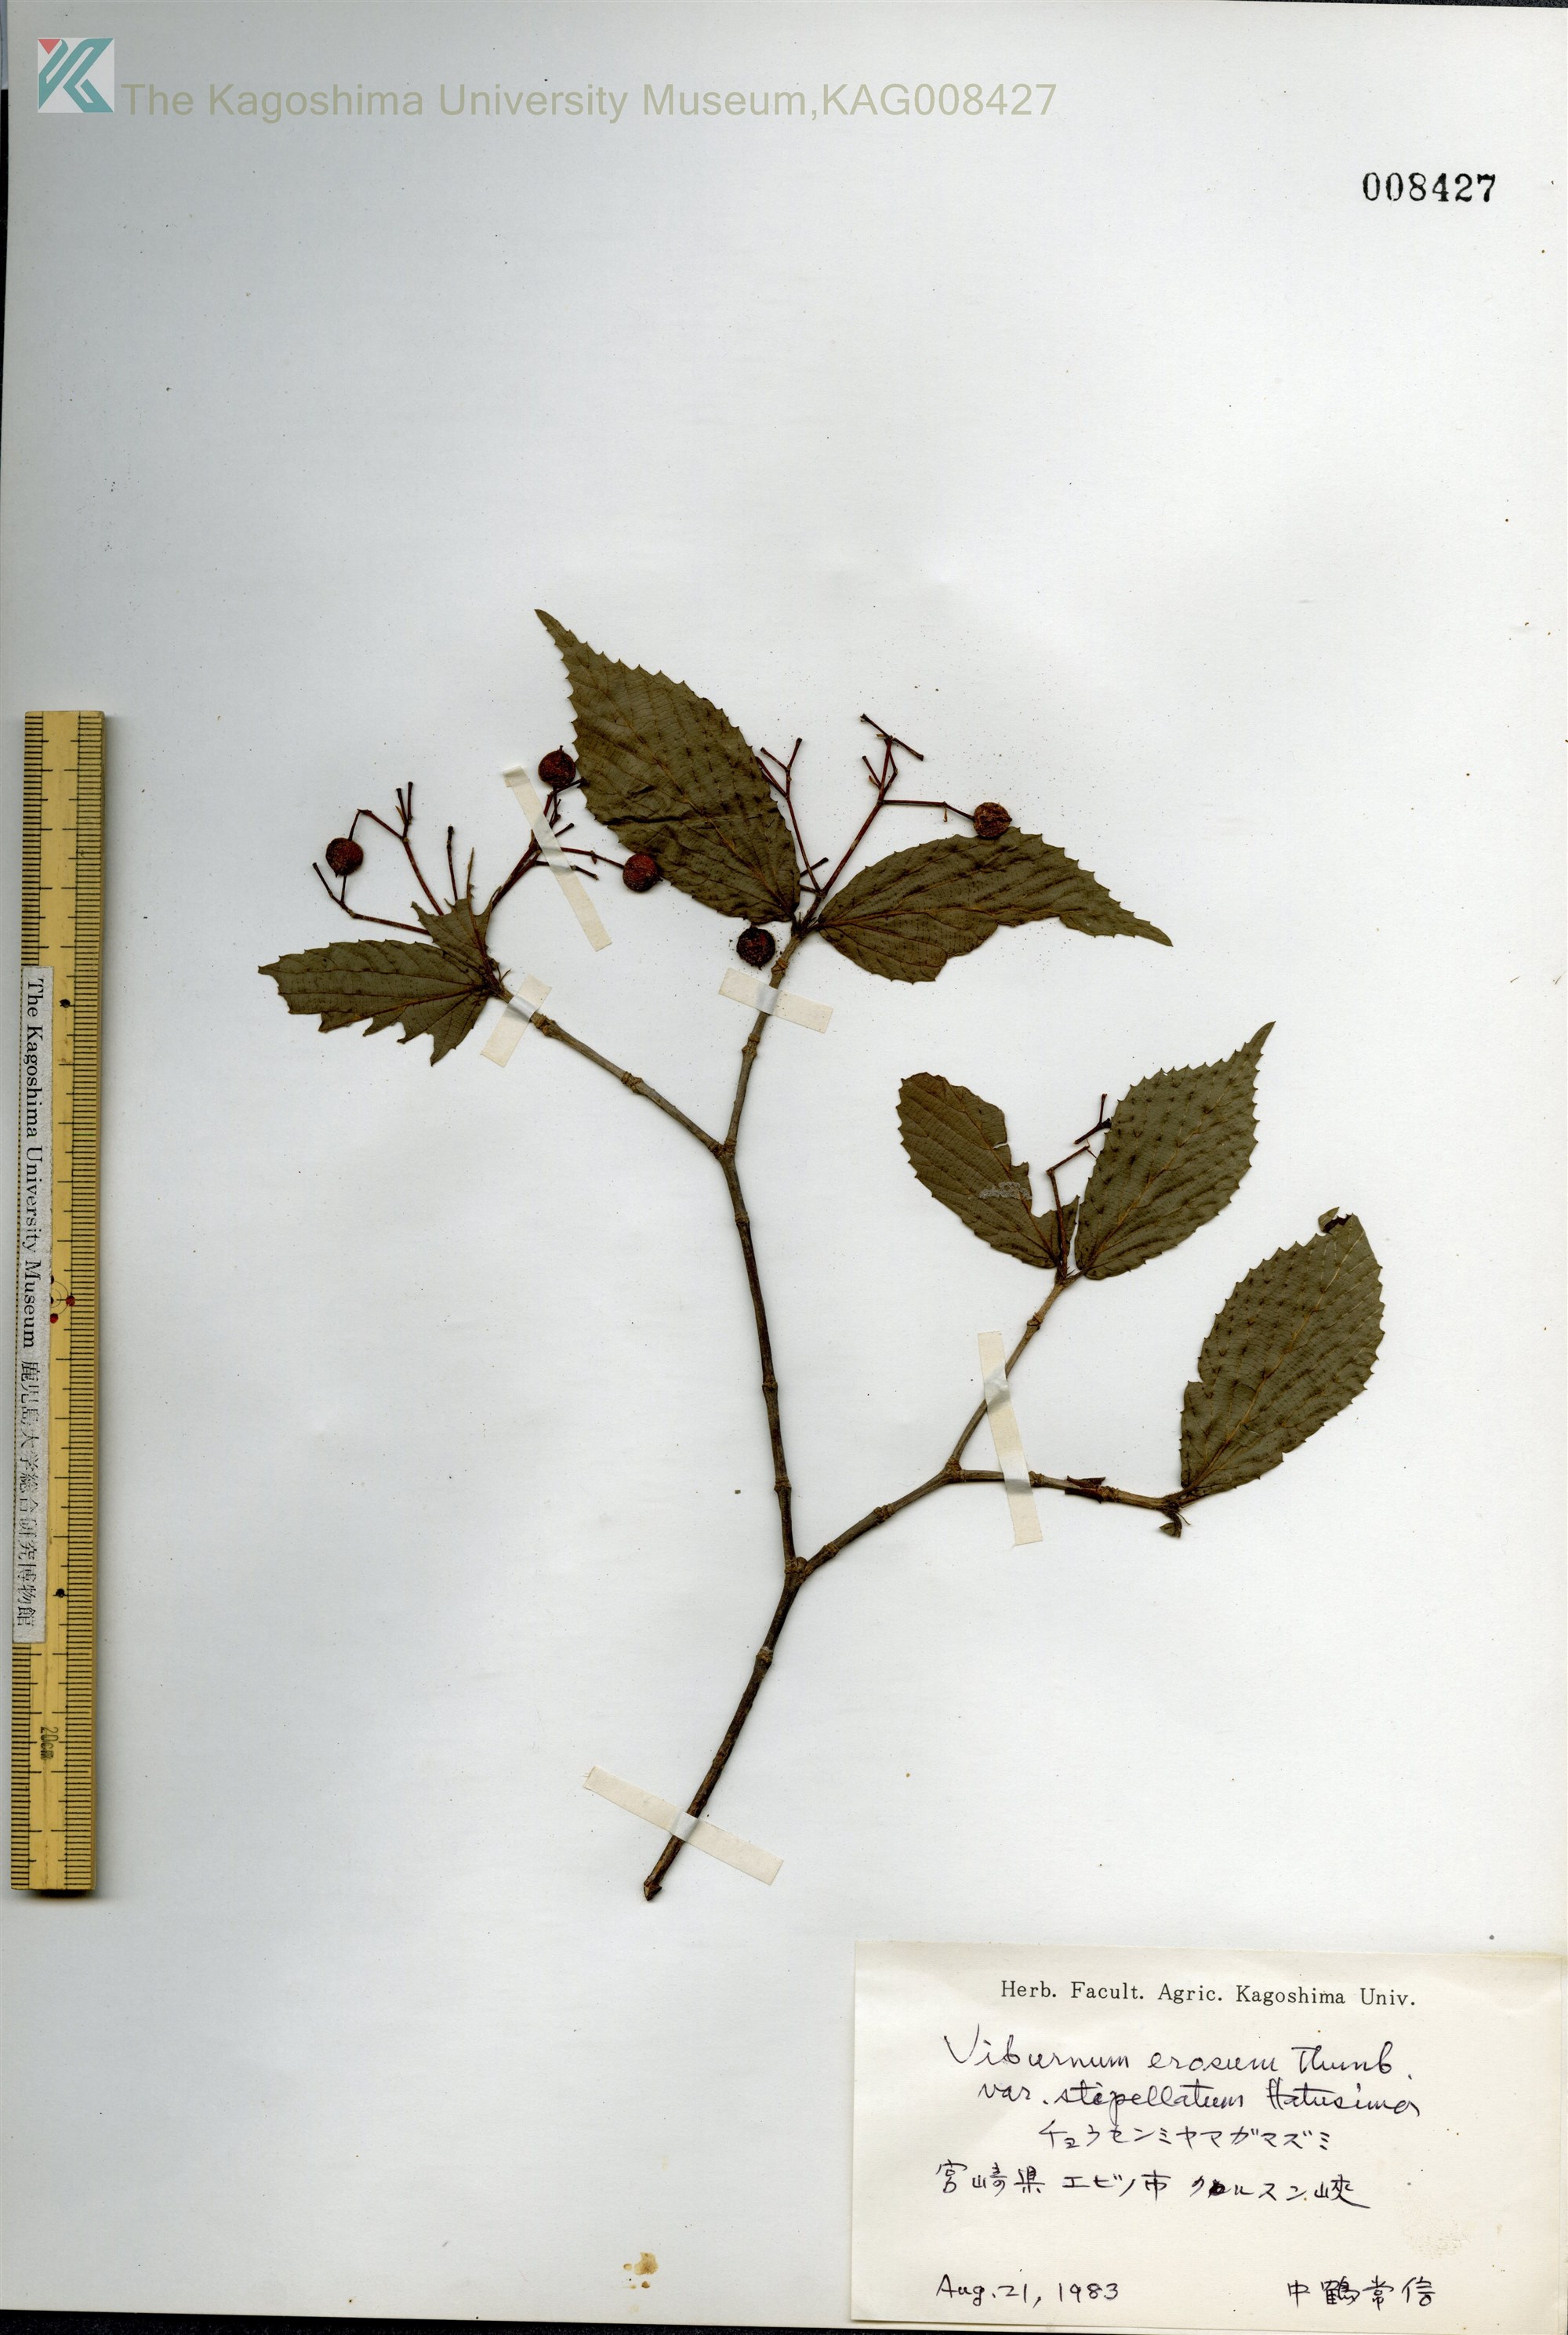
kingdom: Plantae
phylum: Tracheophyta
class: Magnoliopsida
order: Dipsacales
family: Viburnaceae
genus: Viburnum
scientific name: Viburnum erosum
